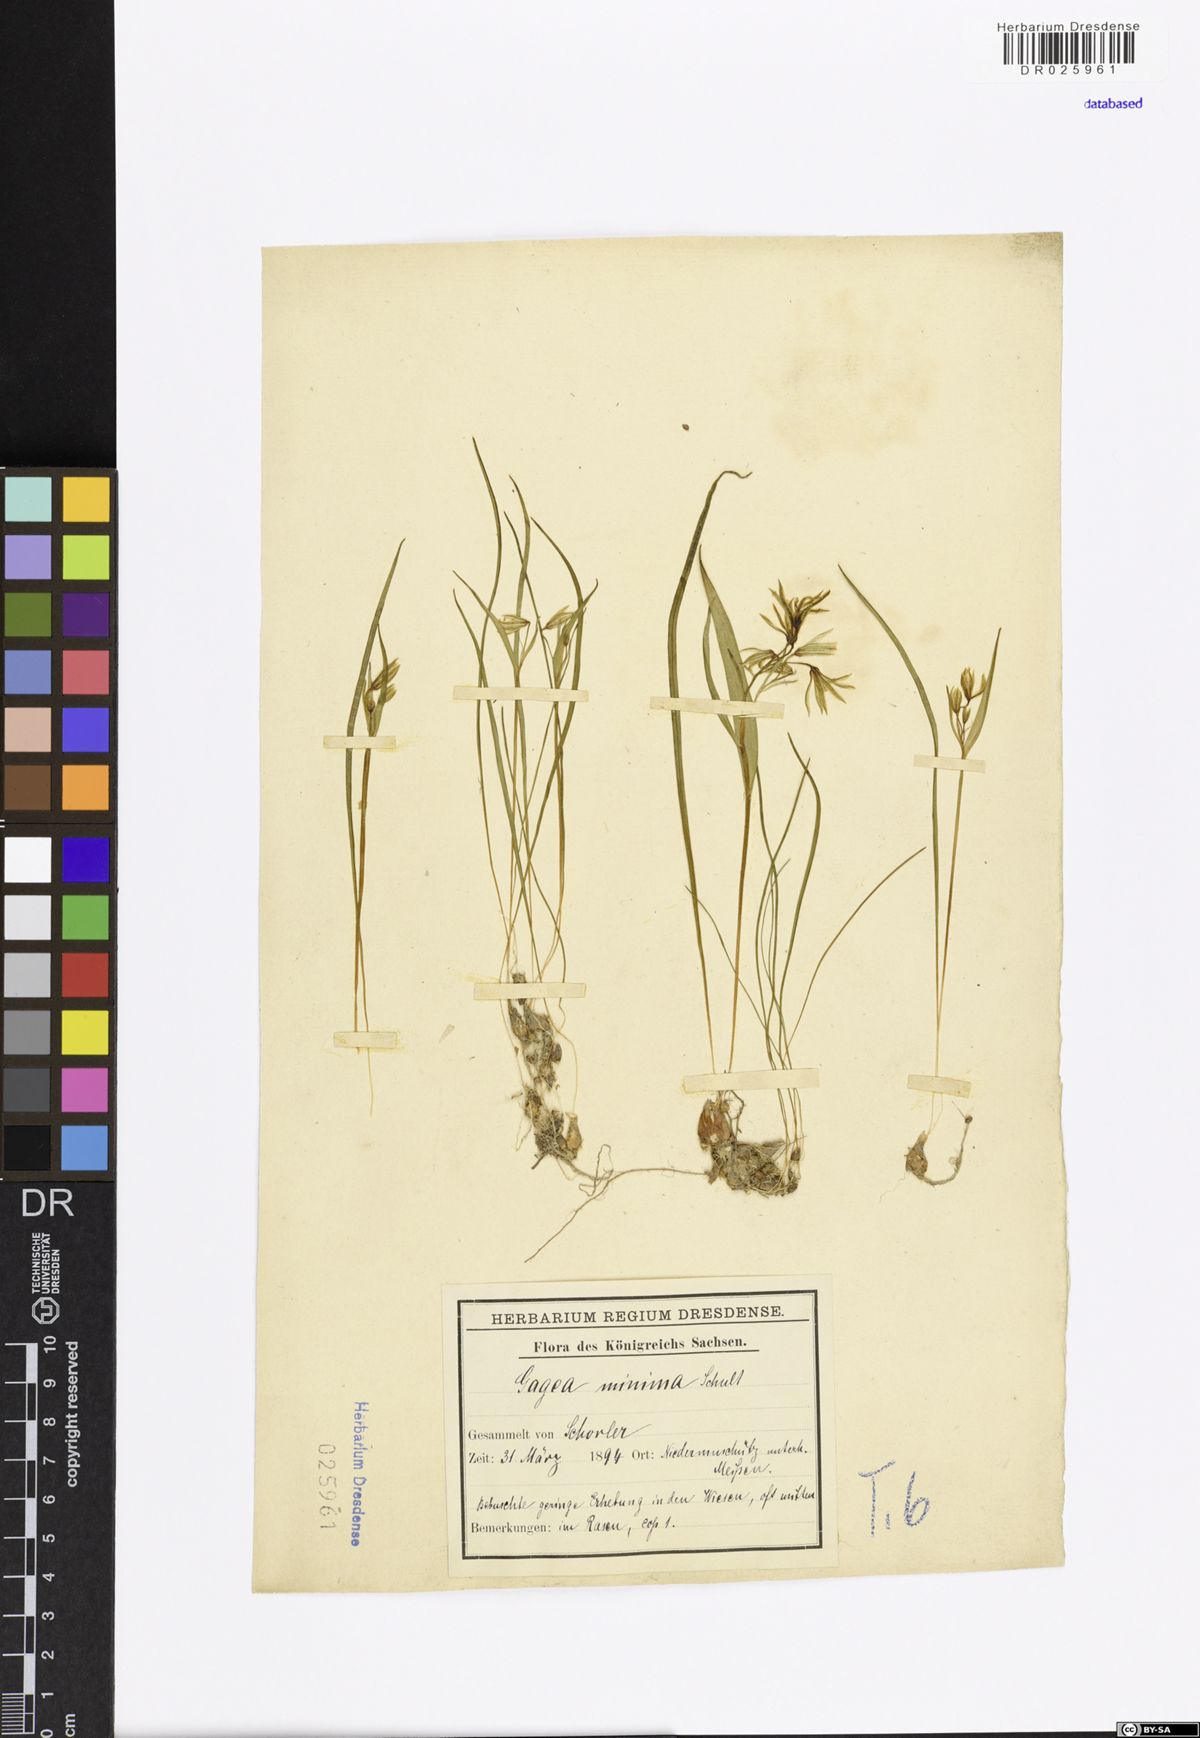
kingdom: Plantae
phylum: Tracheophyta
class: Liliopsida
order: Liliales
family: Liliaceae
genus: Gagea
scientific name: Gagea minima
